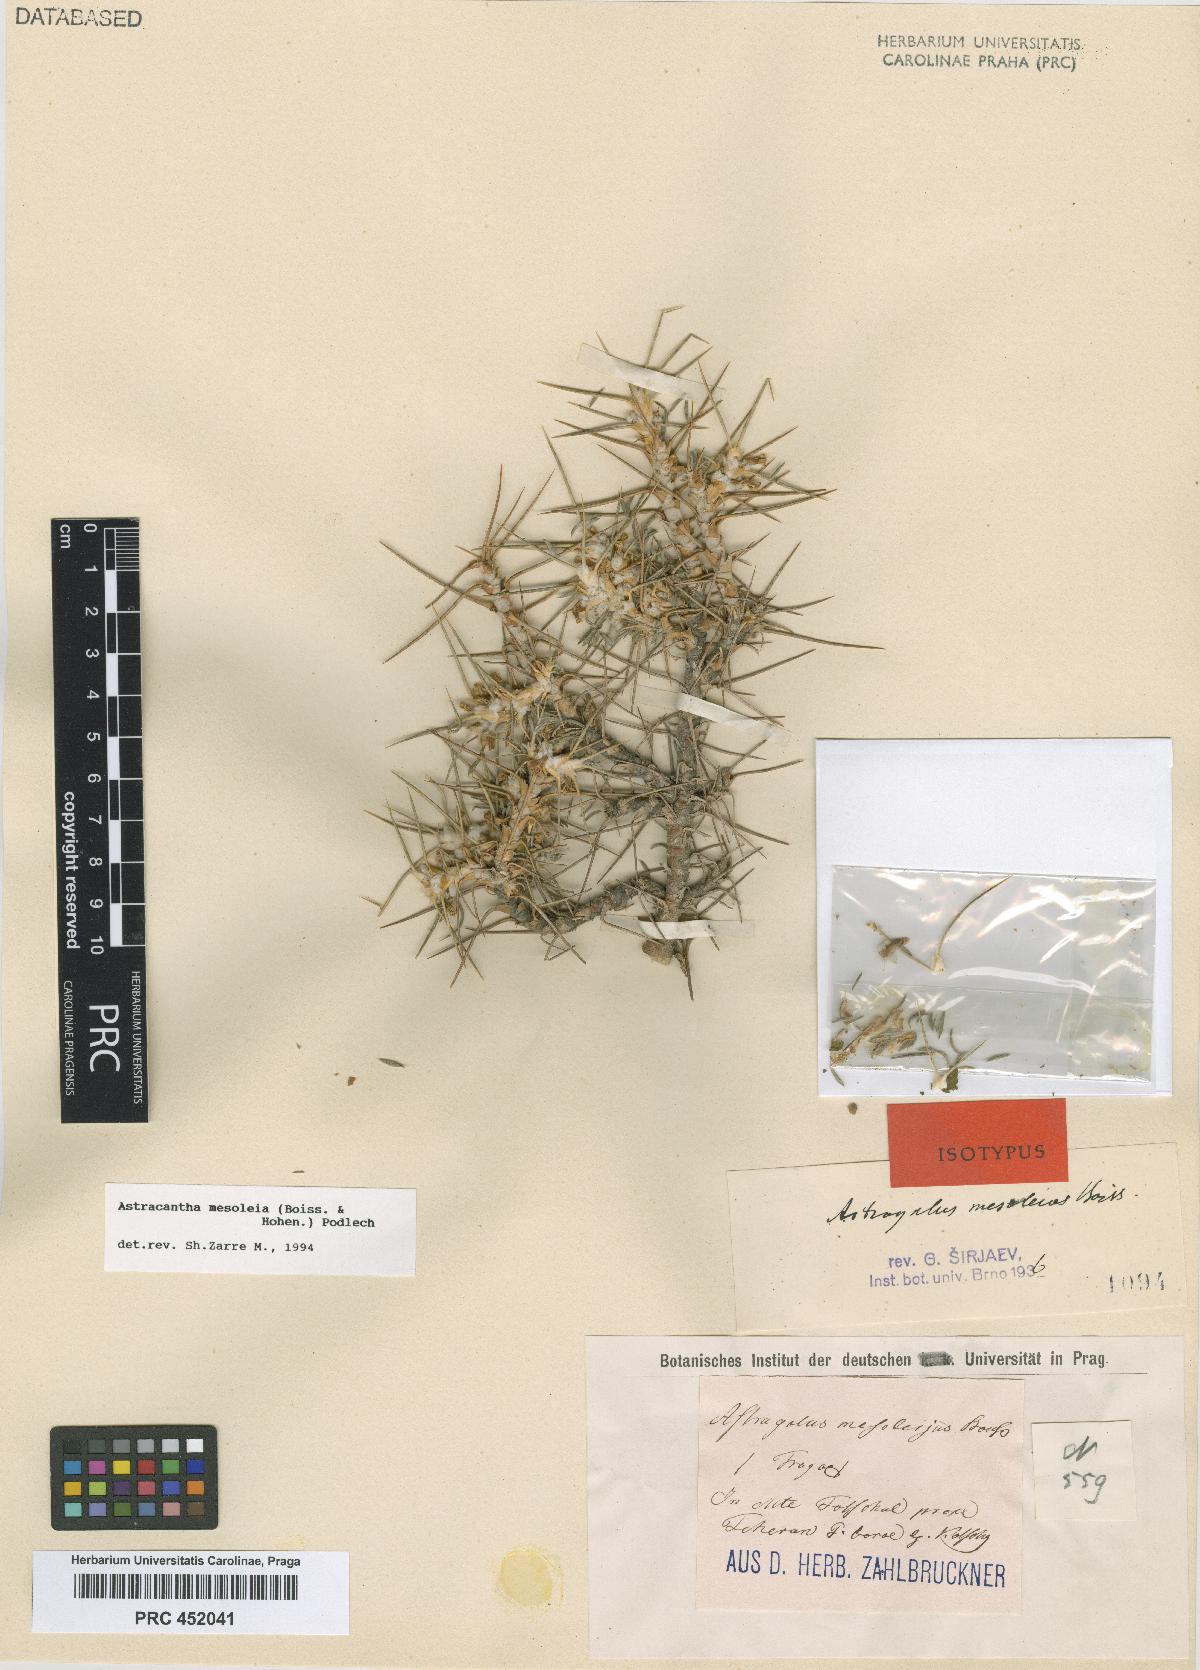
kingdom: Plantae
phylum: Tracheophyta
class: Magnoliopsida
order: Fabales
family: Fabaceae
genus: Astragalus
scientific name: Astragalus mesoleios
